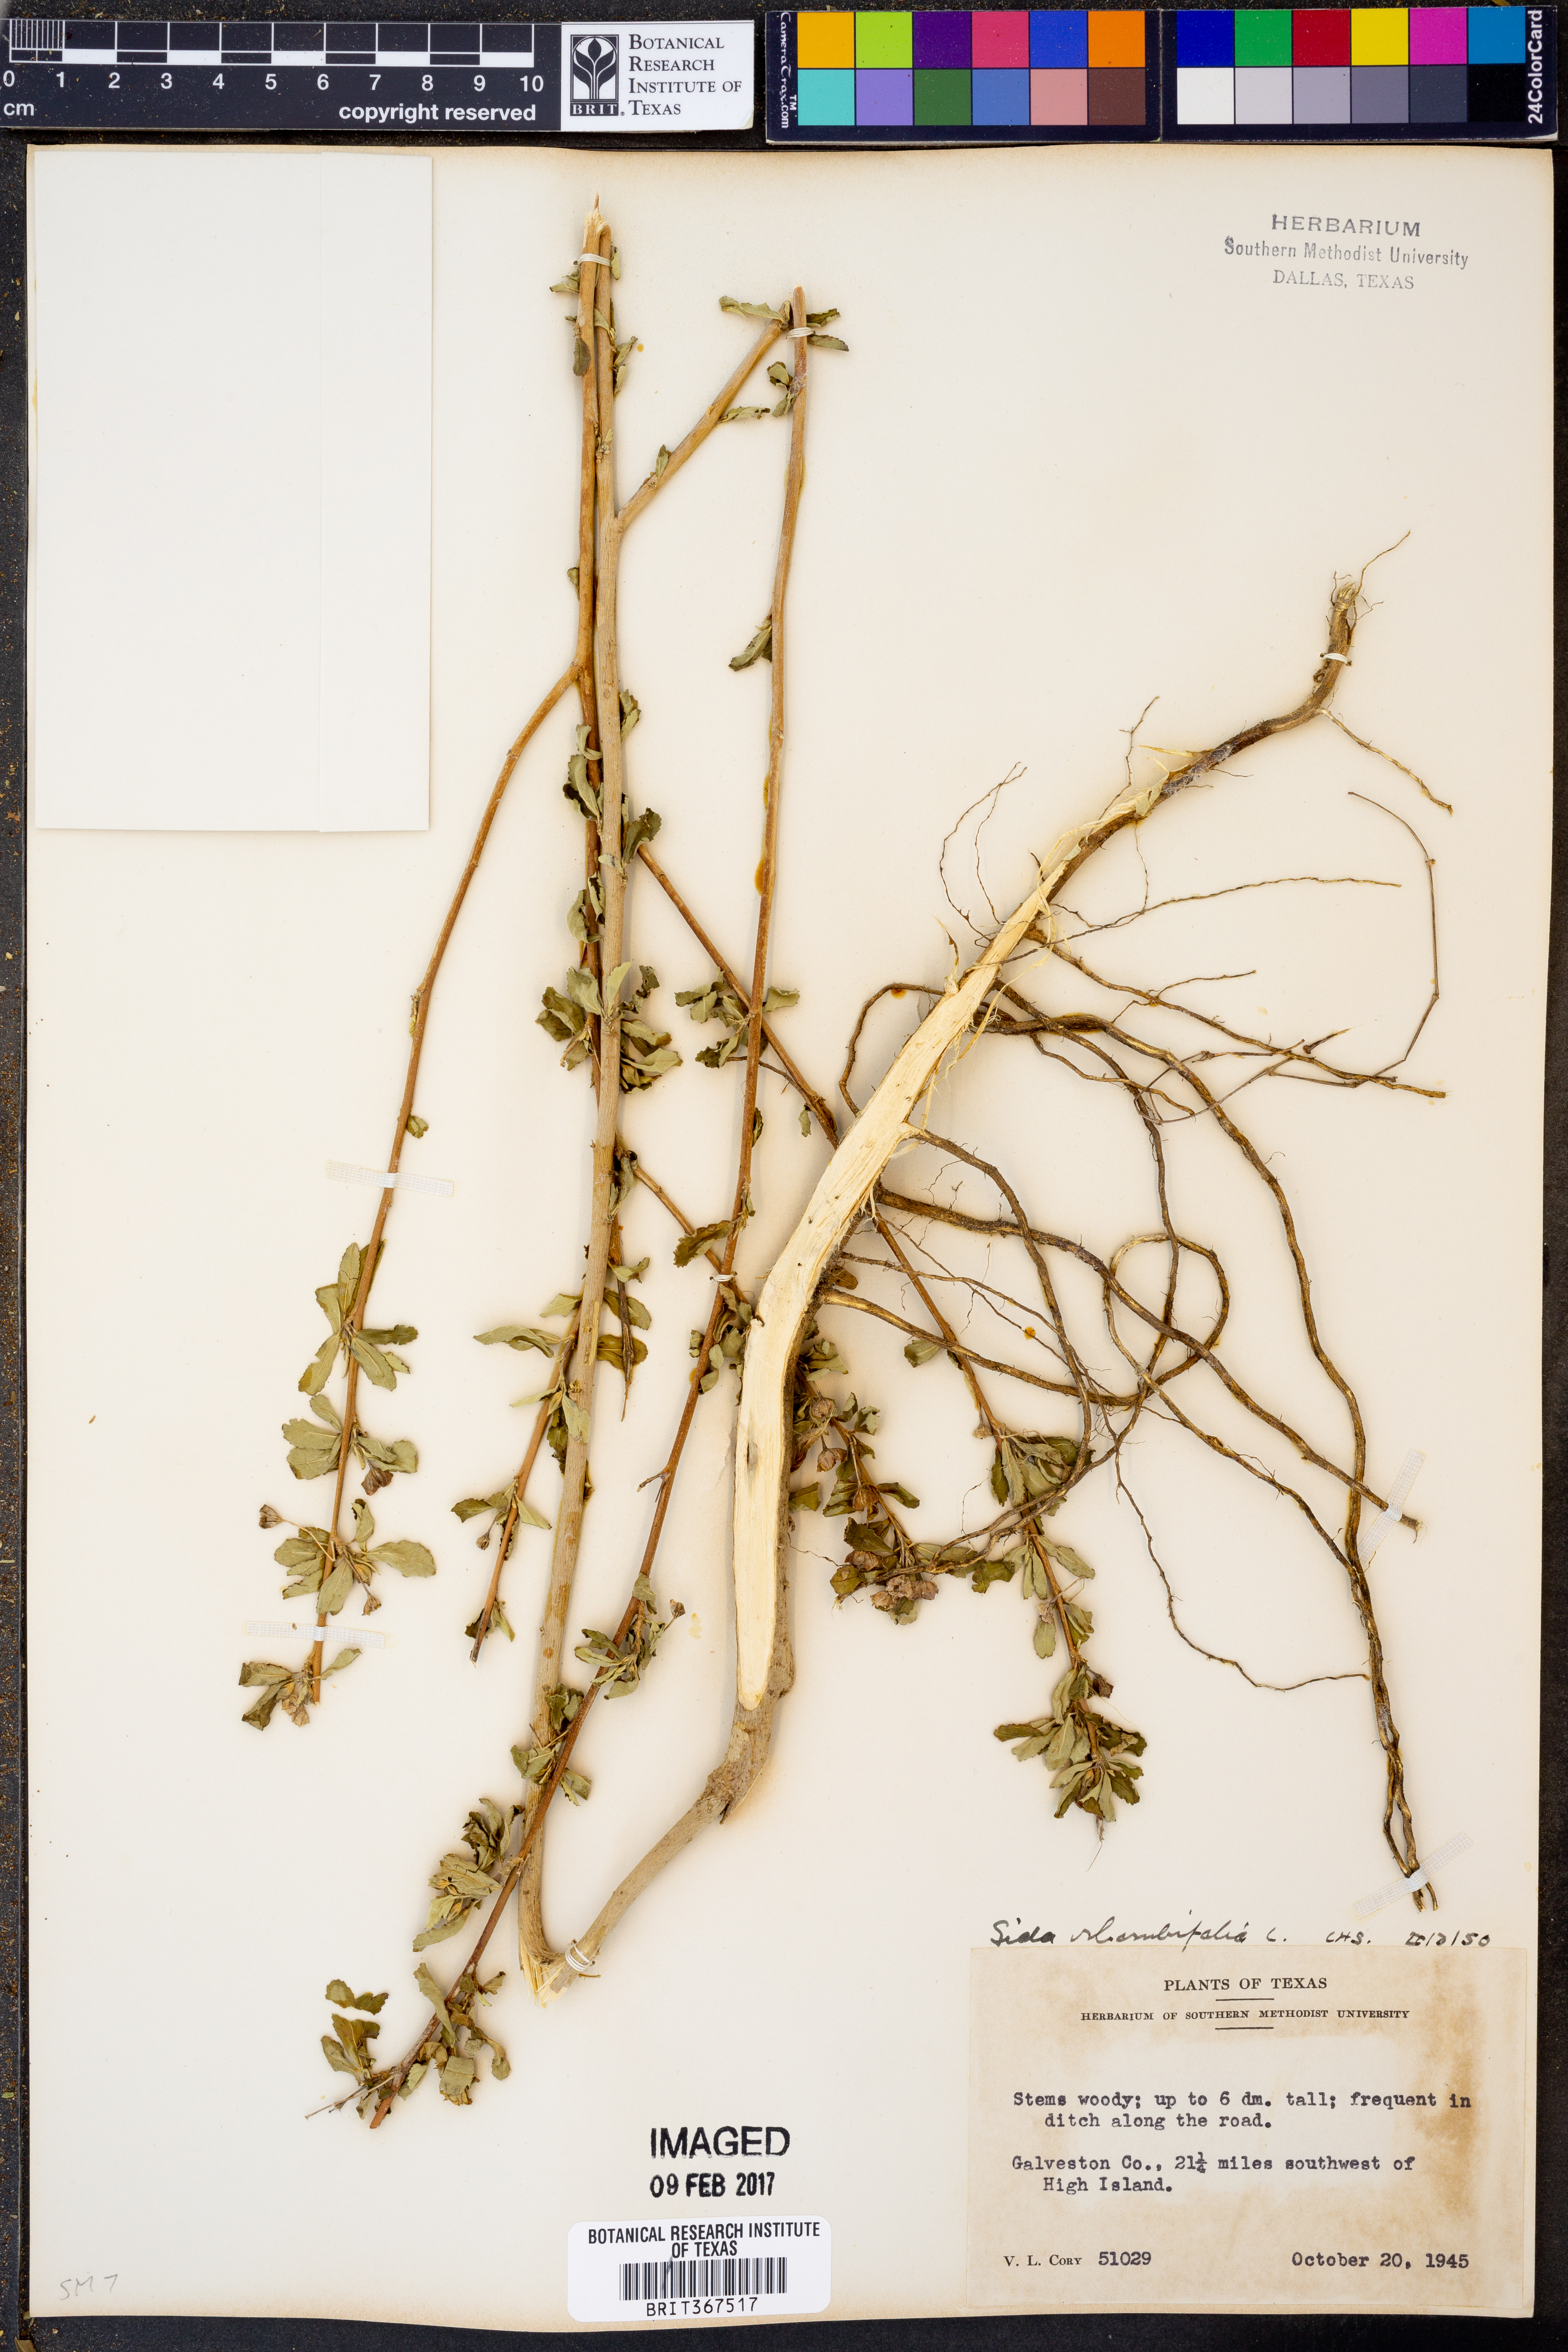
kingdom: Plantae
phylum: Tracheophyta
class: Magnoliopsida
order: Malvales
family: Malvaceae
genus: Sida
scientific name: Sida rhombifolia
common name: Queensland-hemp
